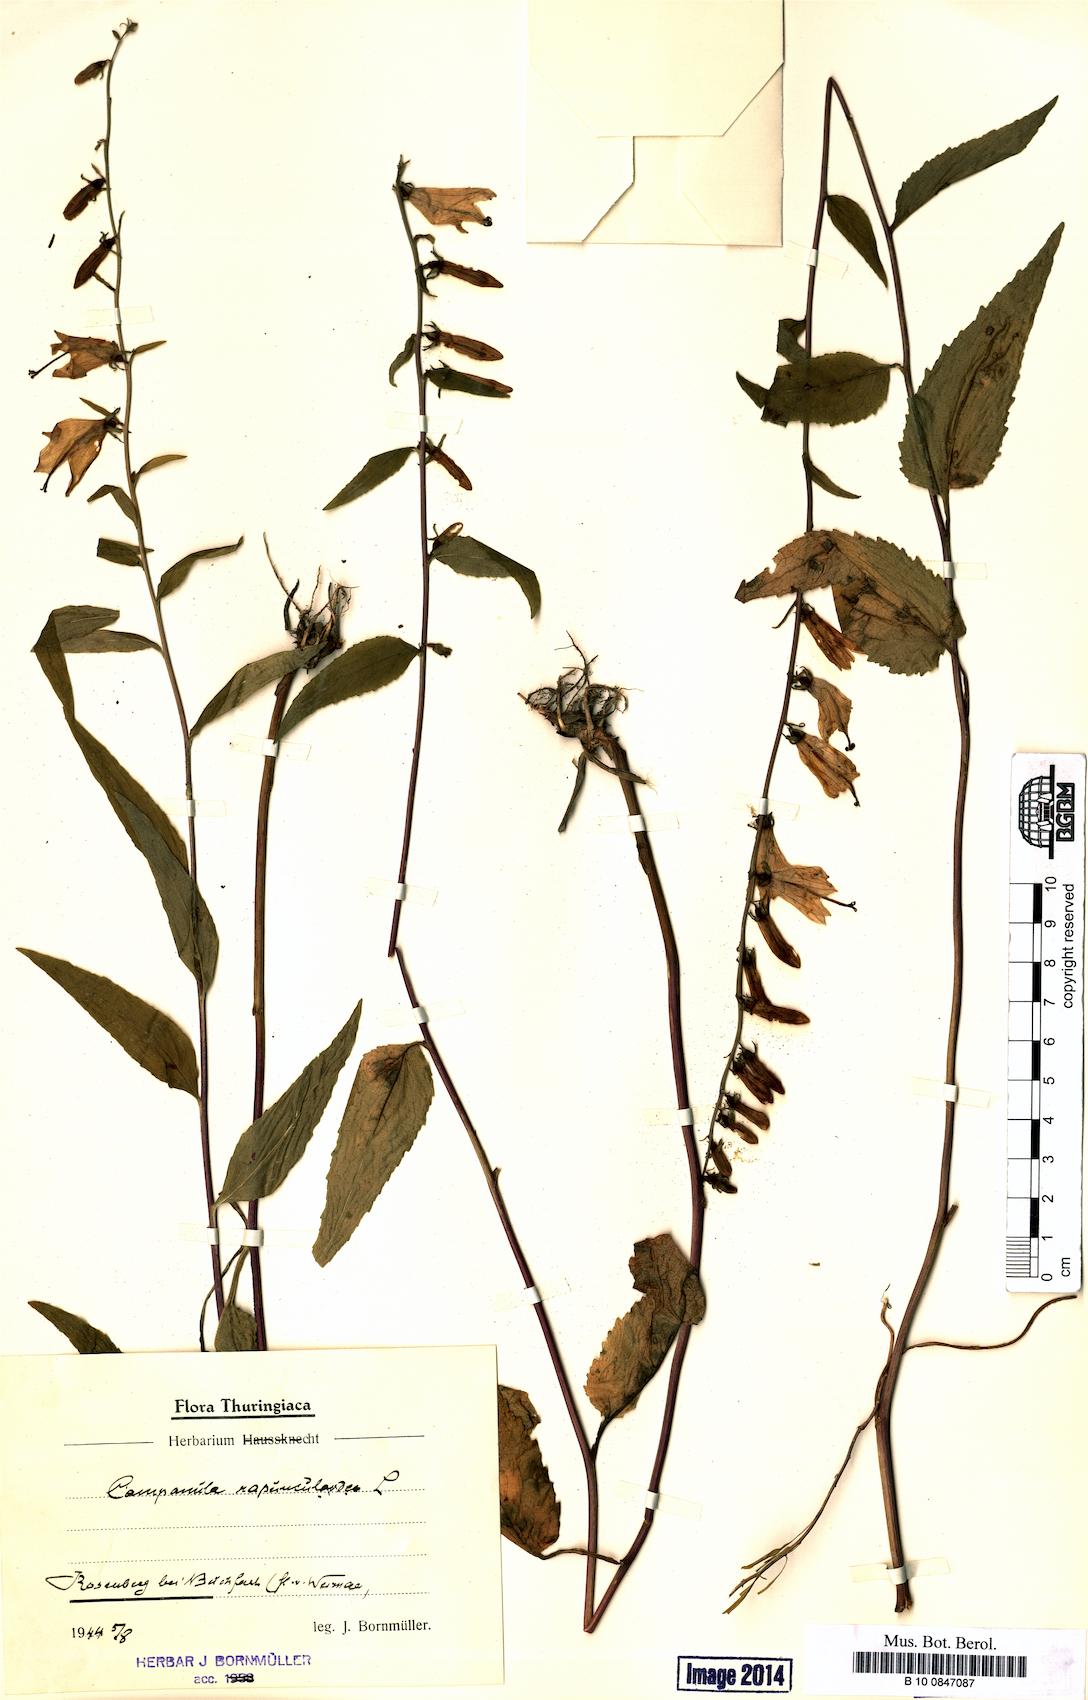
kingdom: Plantae
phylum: Tracheophyta
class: Magnoliopsida
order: Asterales
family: Campanulaceae
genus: Campanula
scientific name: Campanula rapunculoides
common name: Creeping bellflower
